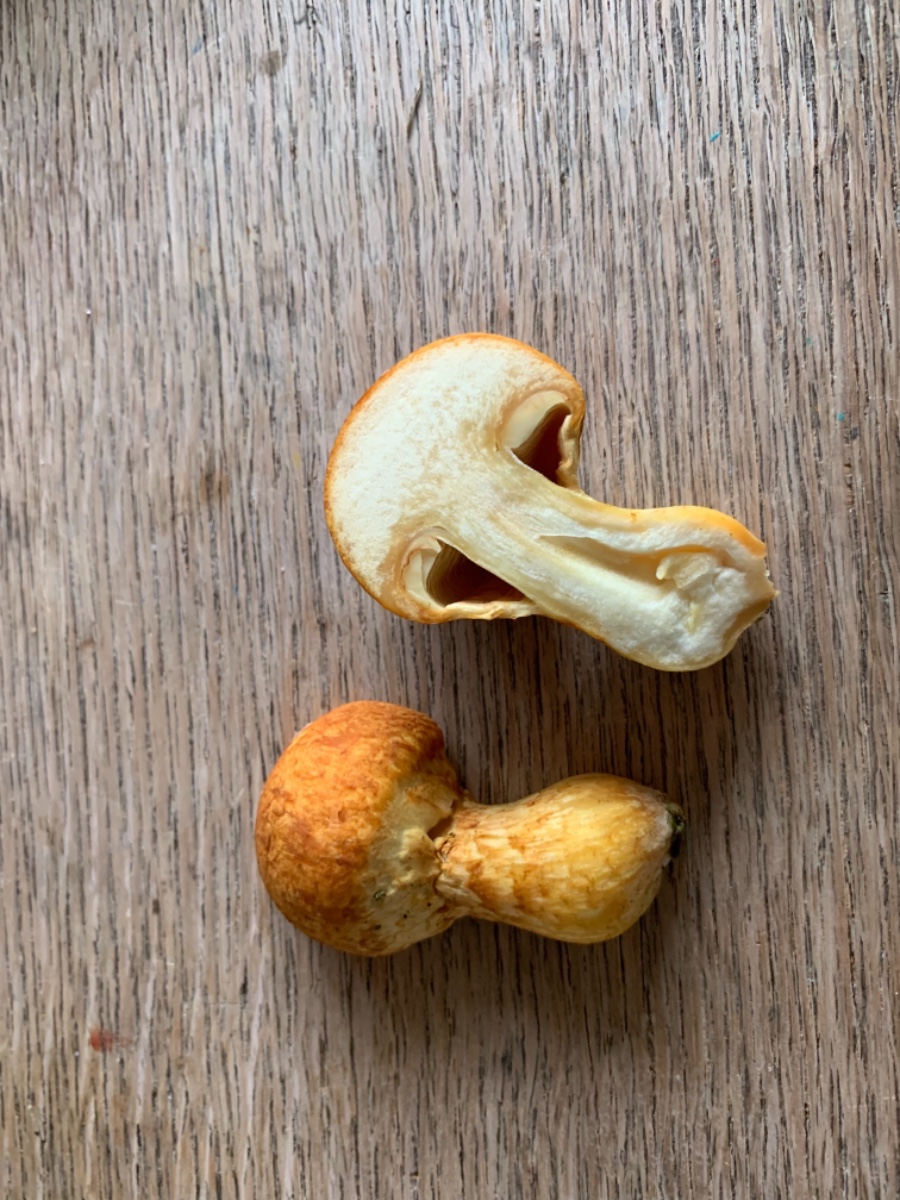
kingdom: Fungi
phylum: Basidiomycota
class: Agaricomycetes
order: Agaricales
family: Hymenogastraceae
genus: Gymnopilus
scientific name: Gymnopilus spectabilis
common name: fibret flammehat
